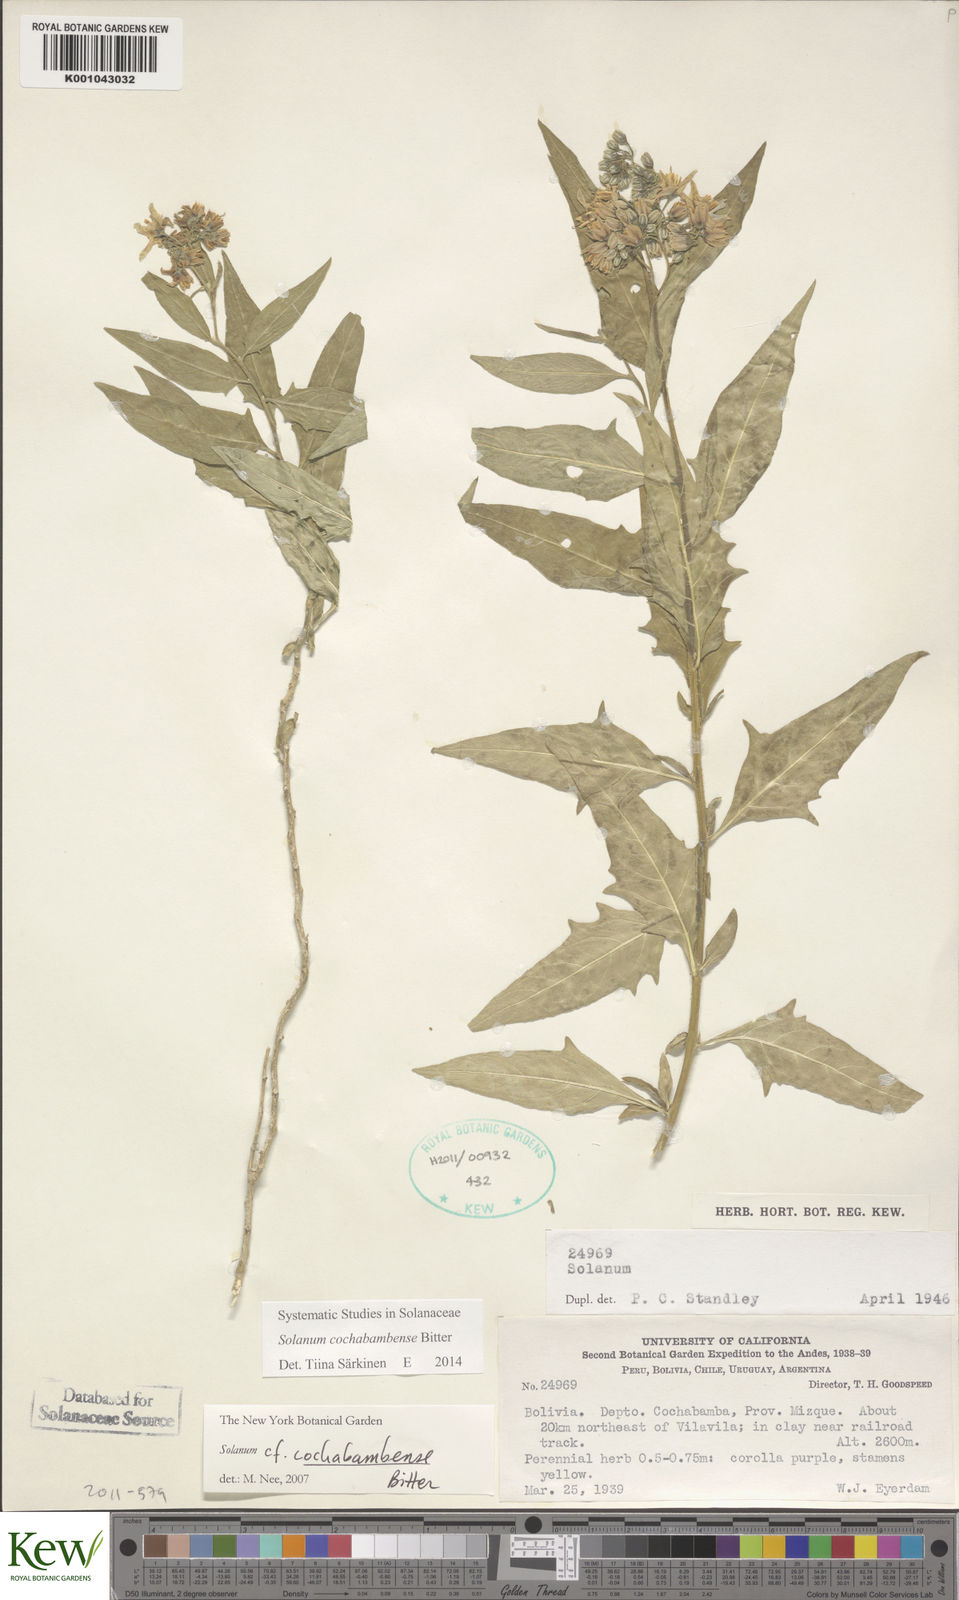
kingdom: Plantae
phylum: Tracheophyta
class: Magnoliopsida
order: Solanales
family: Solanaceae
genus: Solanum
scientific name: Solanum cochabambense
